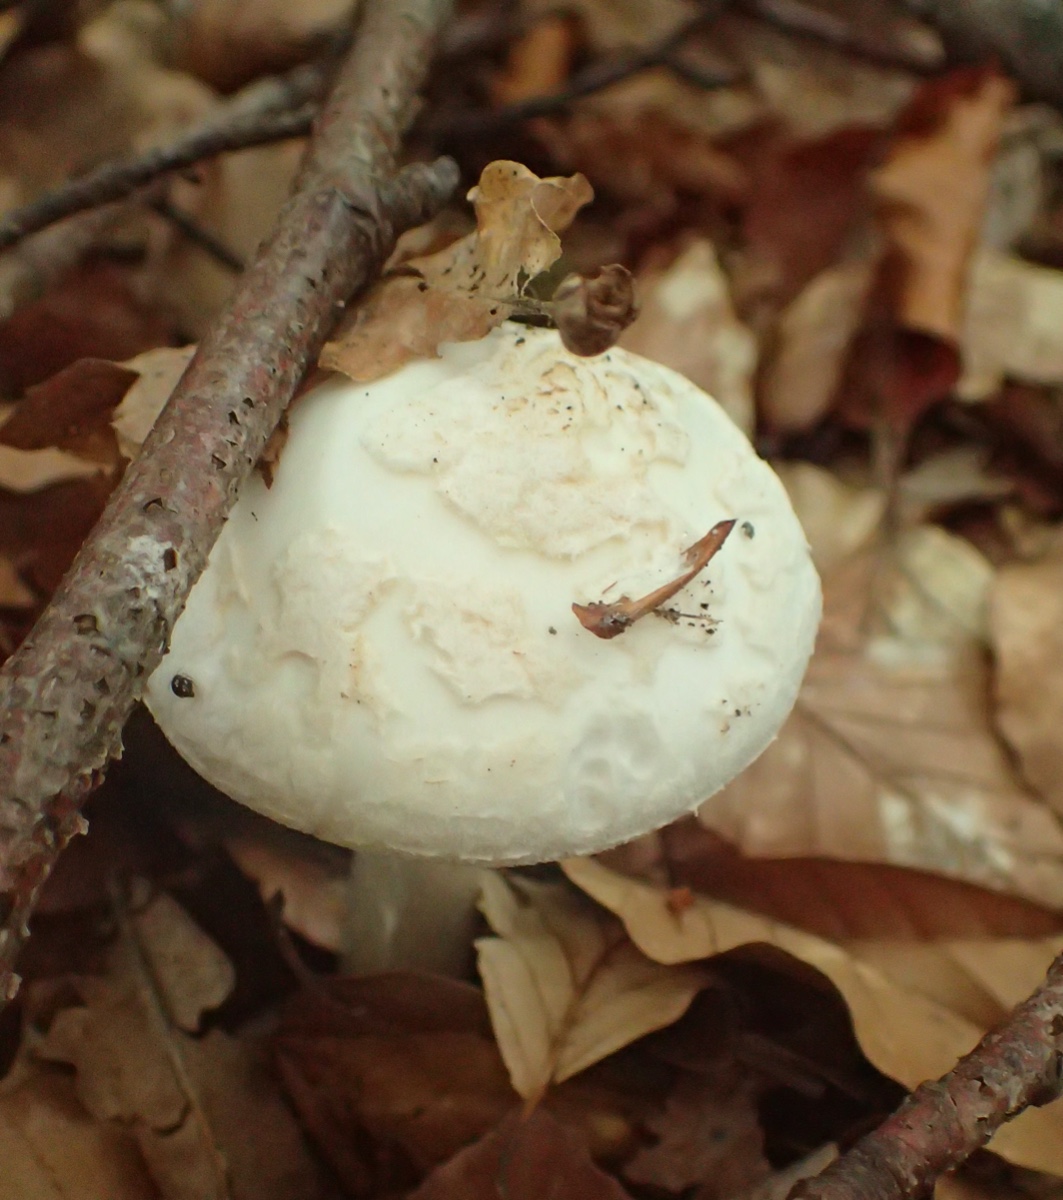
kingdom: Fungi
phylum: Basidiomycota
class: Agaricomycetes
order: Agaricales
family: Amanitaceae
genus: Amanita
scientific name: Amanita citrina
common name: kugleknoldet fluesvamp
